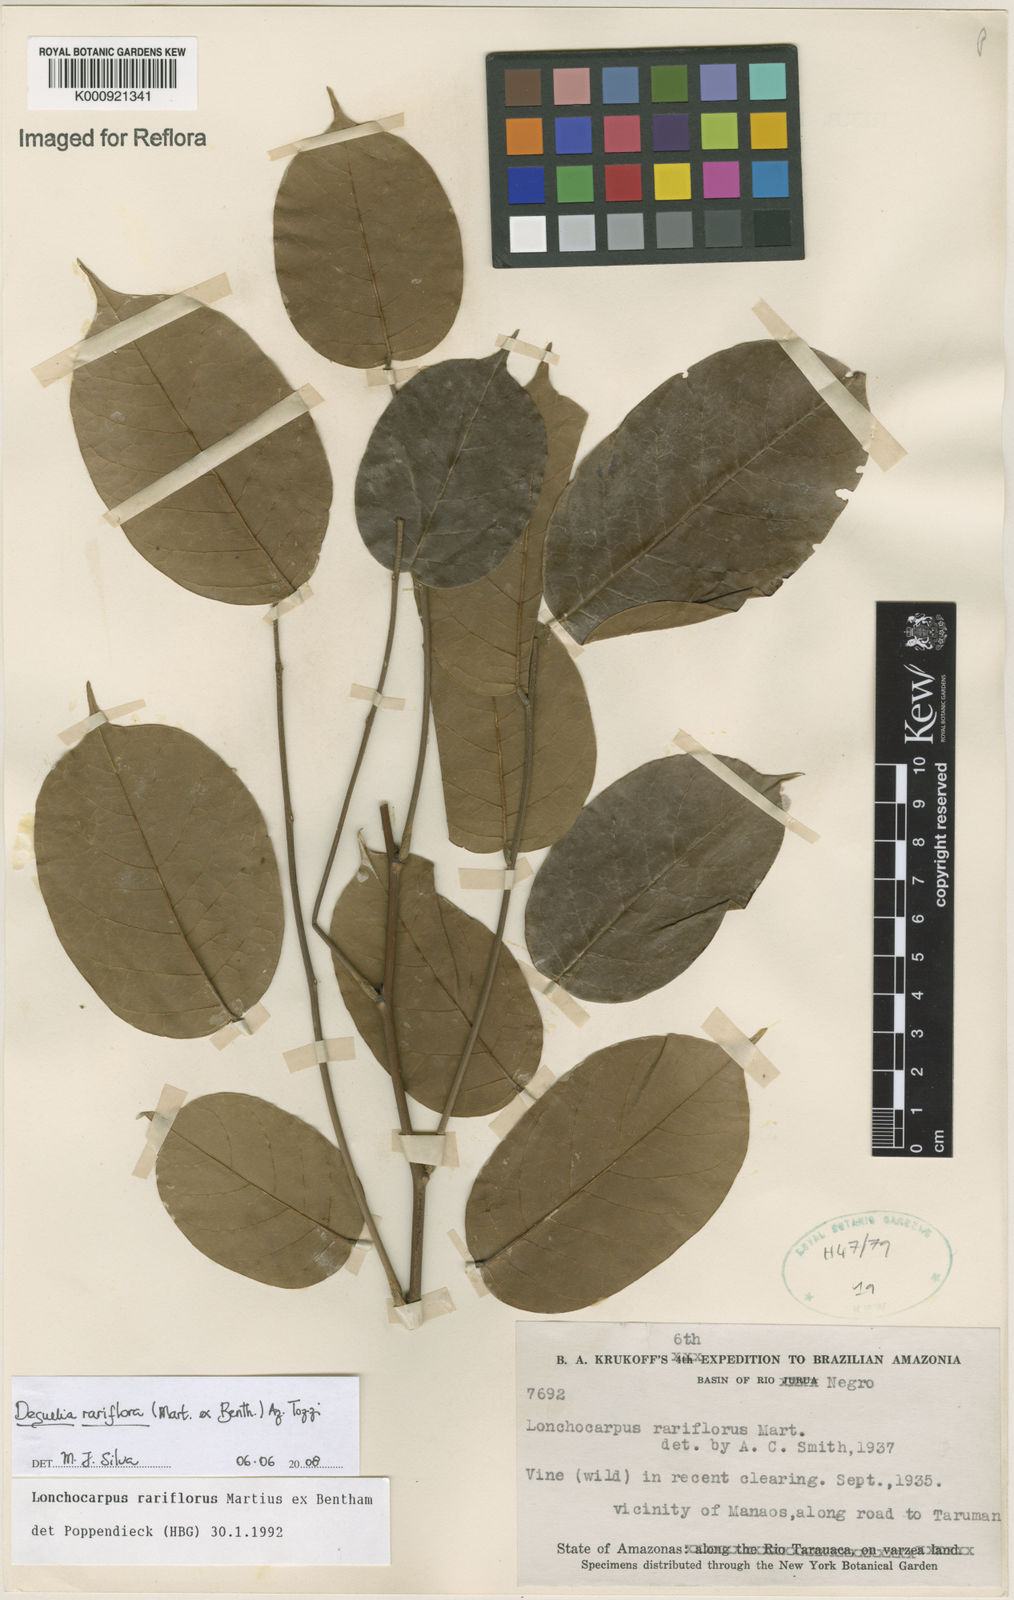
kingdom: Plantae
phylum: Tracheophyta
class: Magnoliopsida
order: Fabales
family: Fabaceae
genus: Deguelia
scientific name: Deguelia
